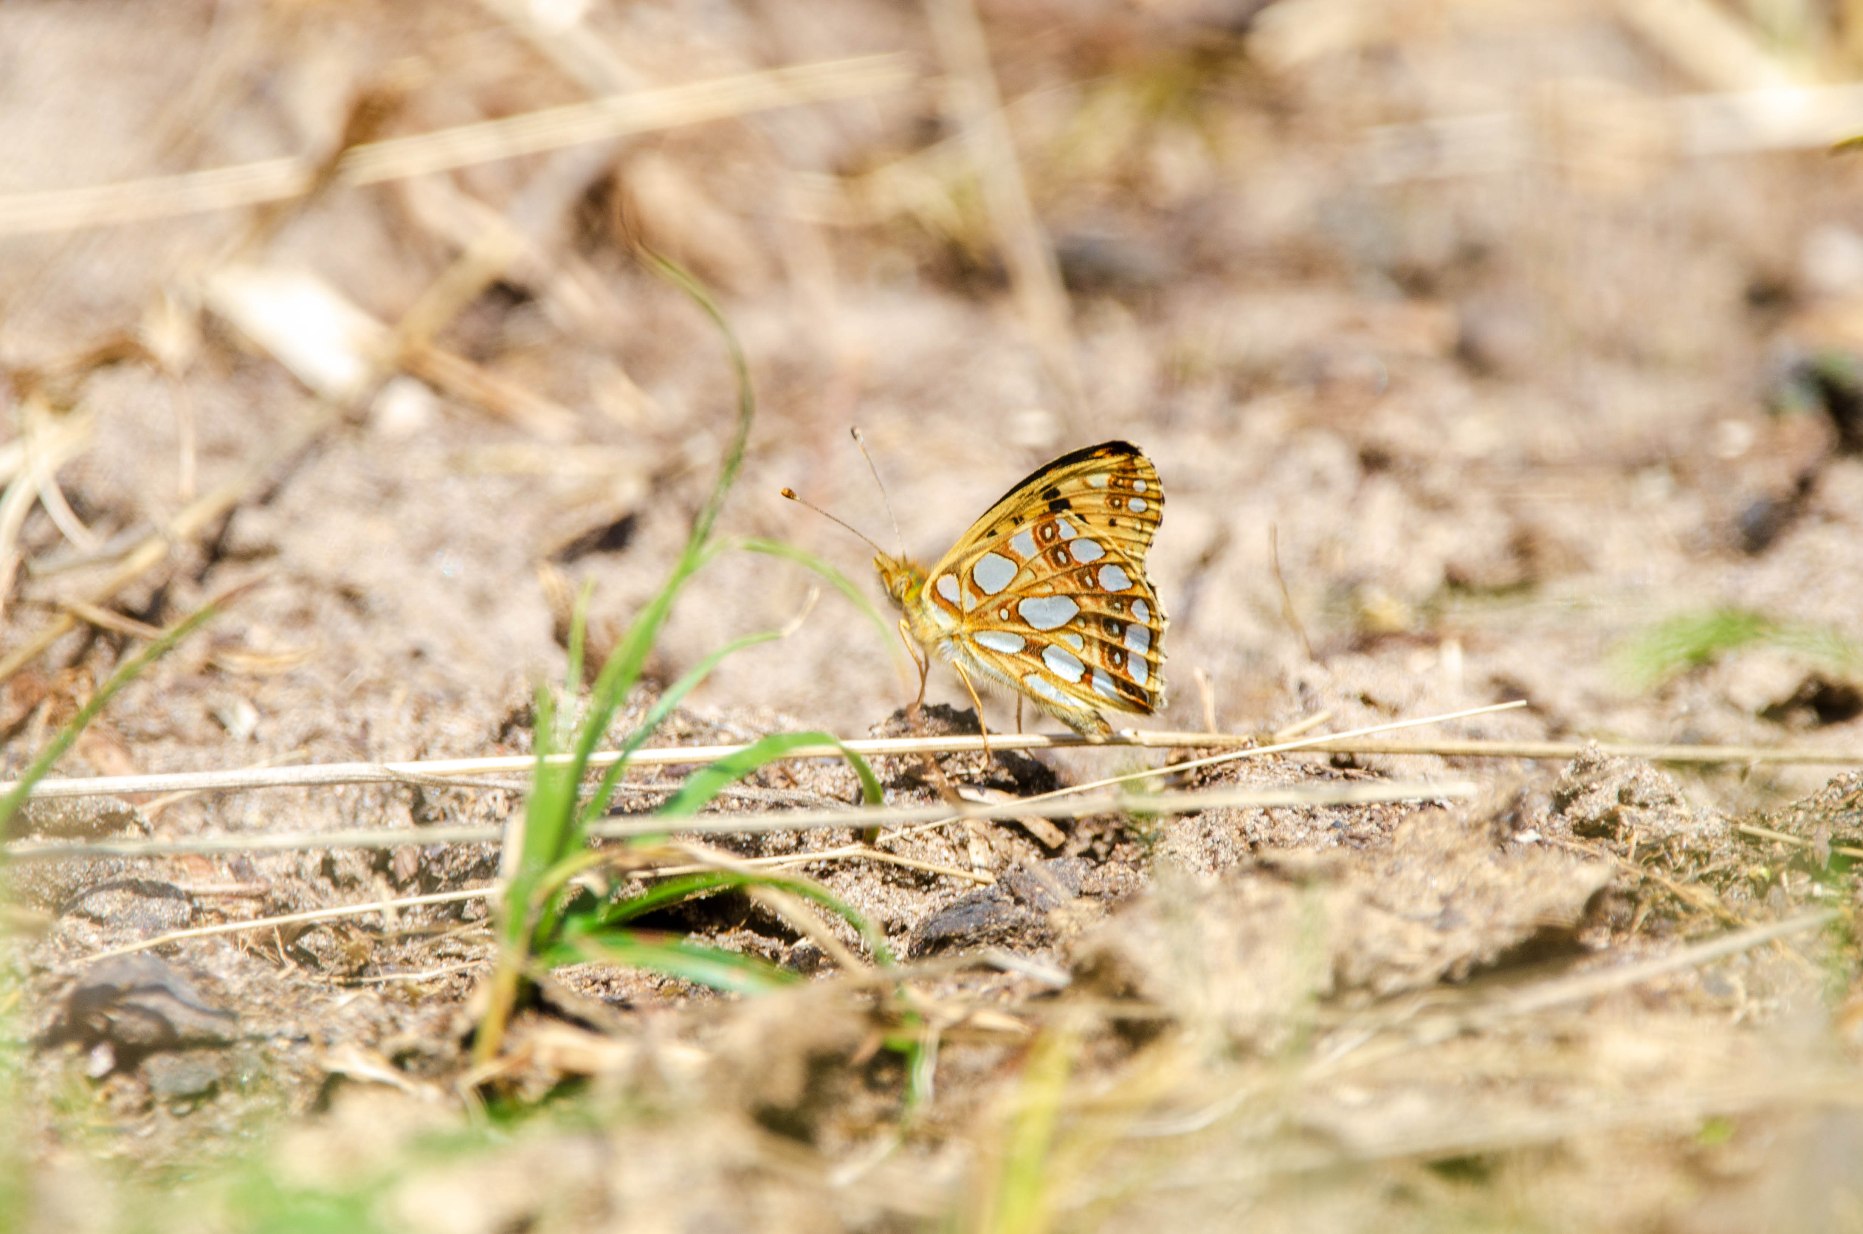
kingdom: Animalia
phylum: Arthropoda
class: Insecta
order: Lepidoptera
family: Nymphalidae
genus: Issoria
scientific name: Issoria lathonia
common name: Storplettet perlemorsommerfugl
